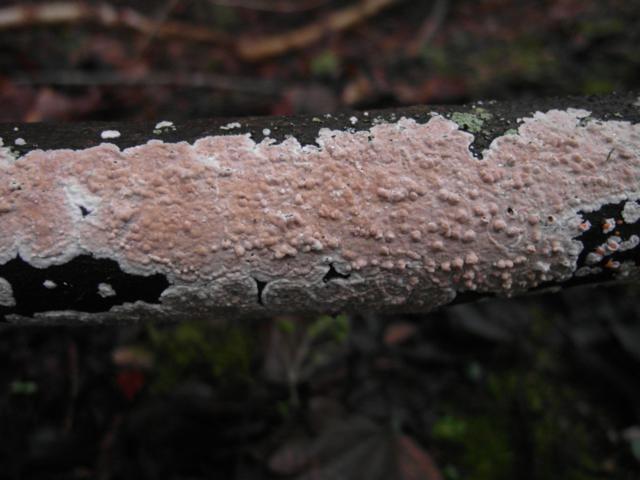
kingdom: Fungi
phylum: Basidiomycota
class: Agaricomycetes
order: Agaricales
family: Physalacriaceae
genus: Cylindrobasidium
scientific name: Cylindrobasidium evolvens
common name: sprækkehinde
